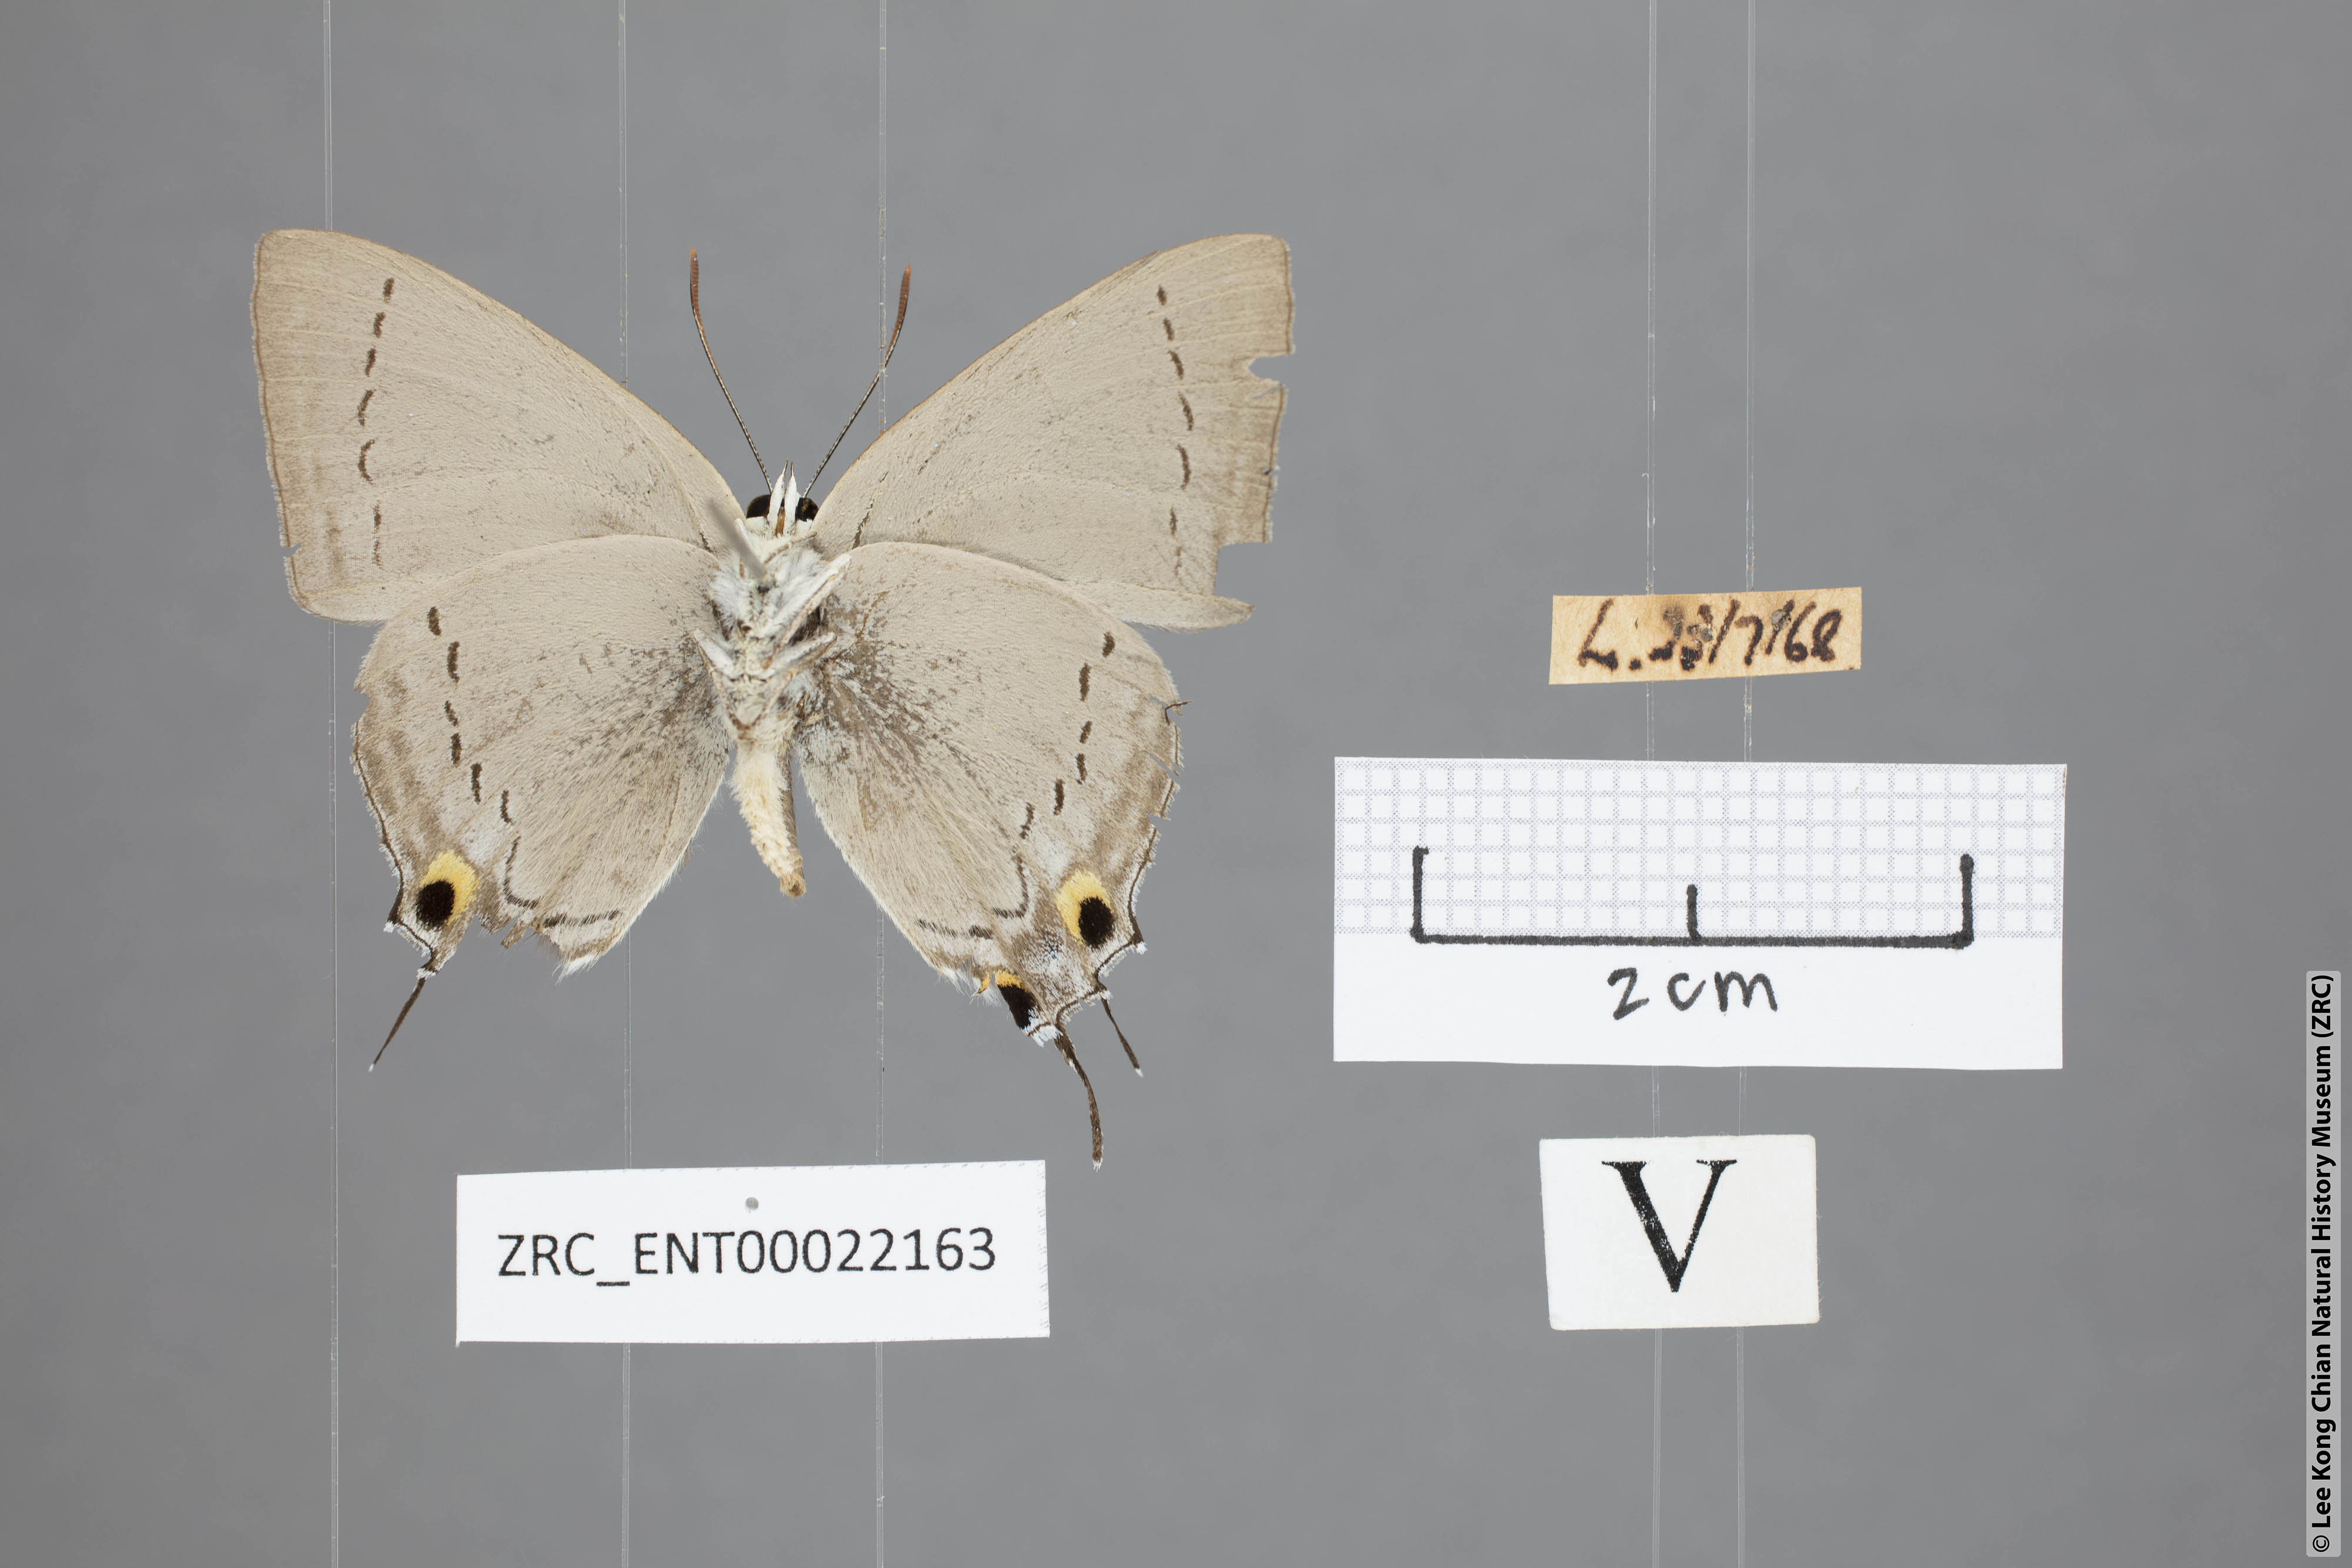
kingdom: Animalia
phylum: Arthropoda
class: Insecta
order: Lepidoptera
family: Lycaenidae
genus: Tajuria
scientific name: Tajuria cippus
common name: Peacock royal
